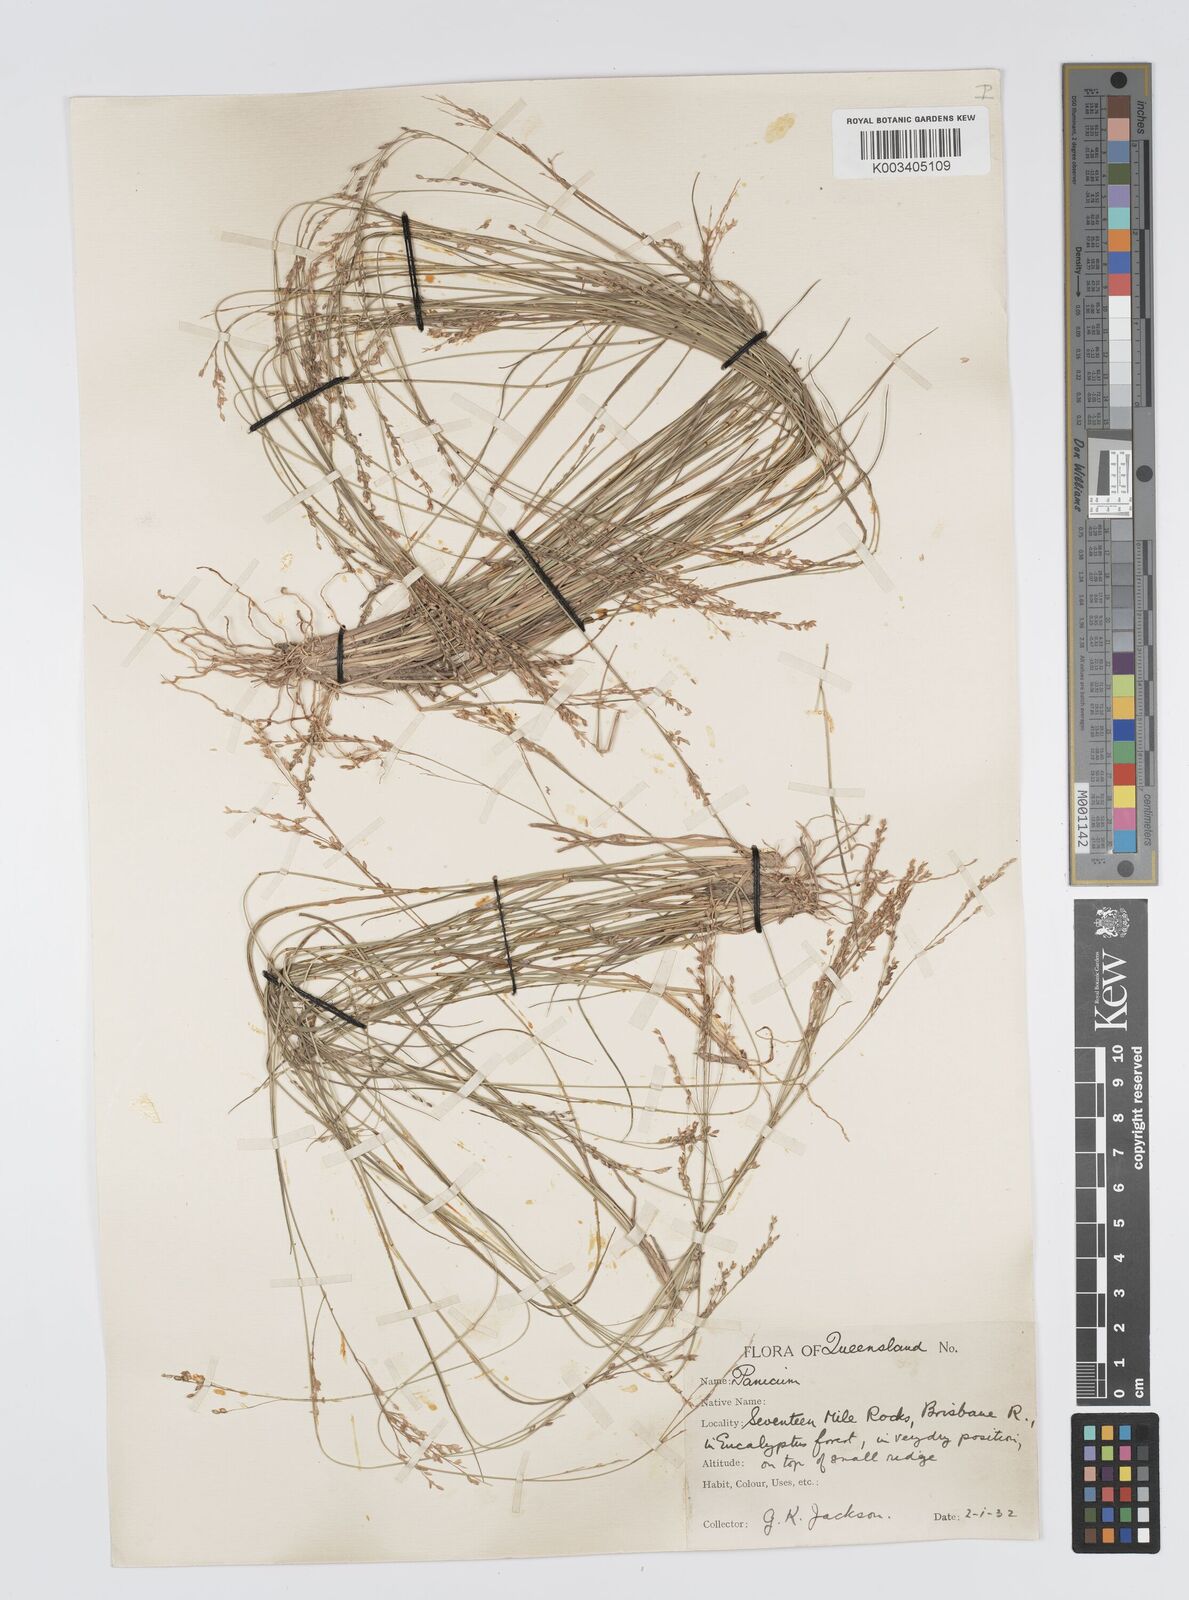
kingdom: Plantae
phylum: Tracheophyta
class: Liliopsida
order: Poales
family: Poaceae
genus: Panicum
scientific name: Panicum simile
